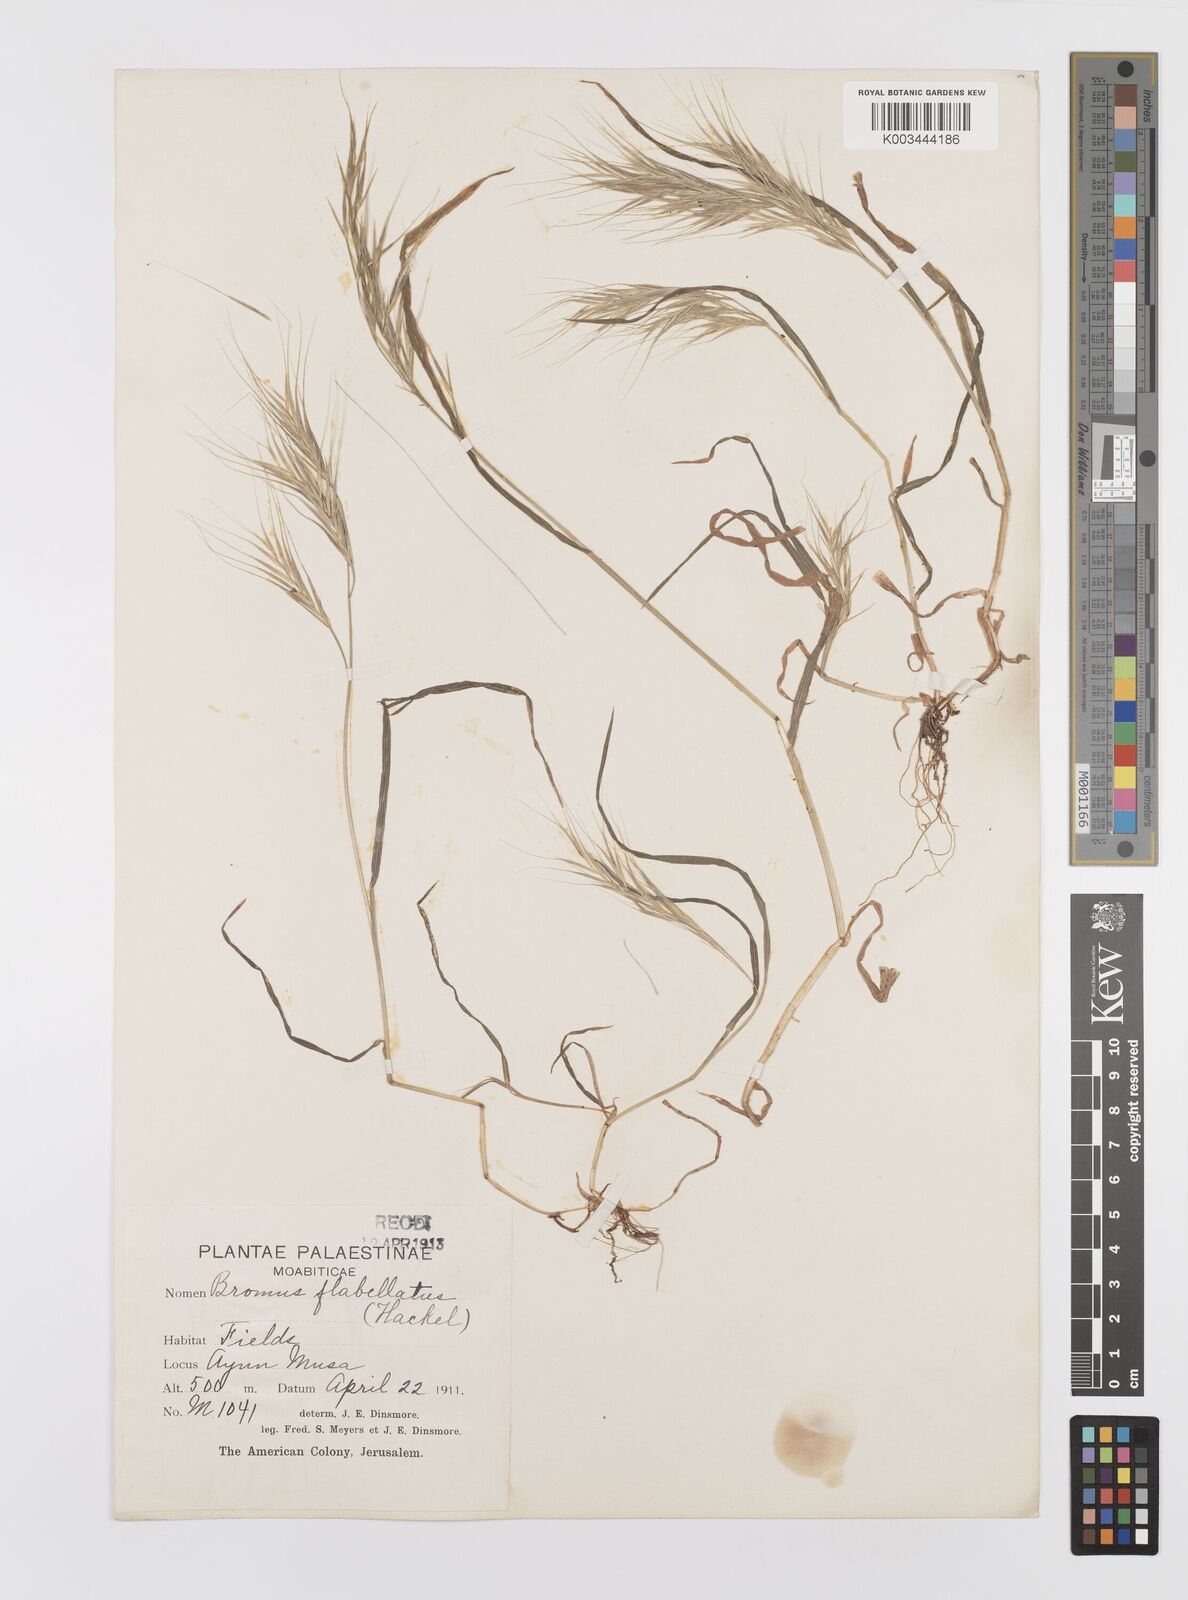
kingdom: Plantae
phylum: Tracheophyta
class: Liliopsida
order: Poales
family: Poaceae
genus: Bromus
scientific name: Bromus madritensis
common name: Compact brome
